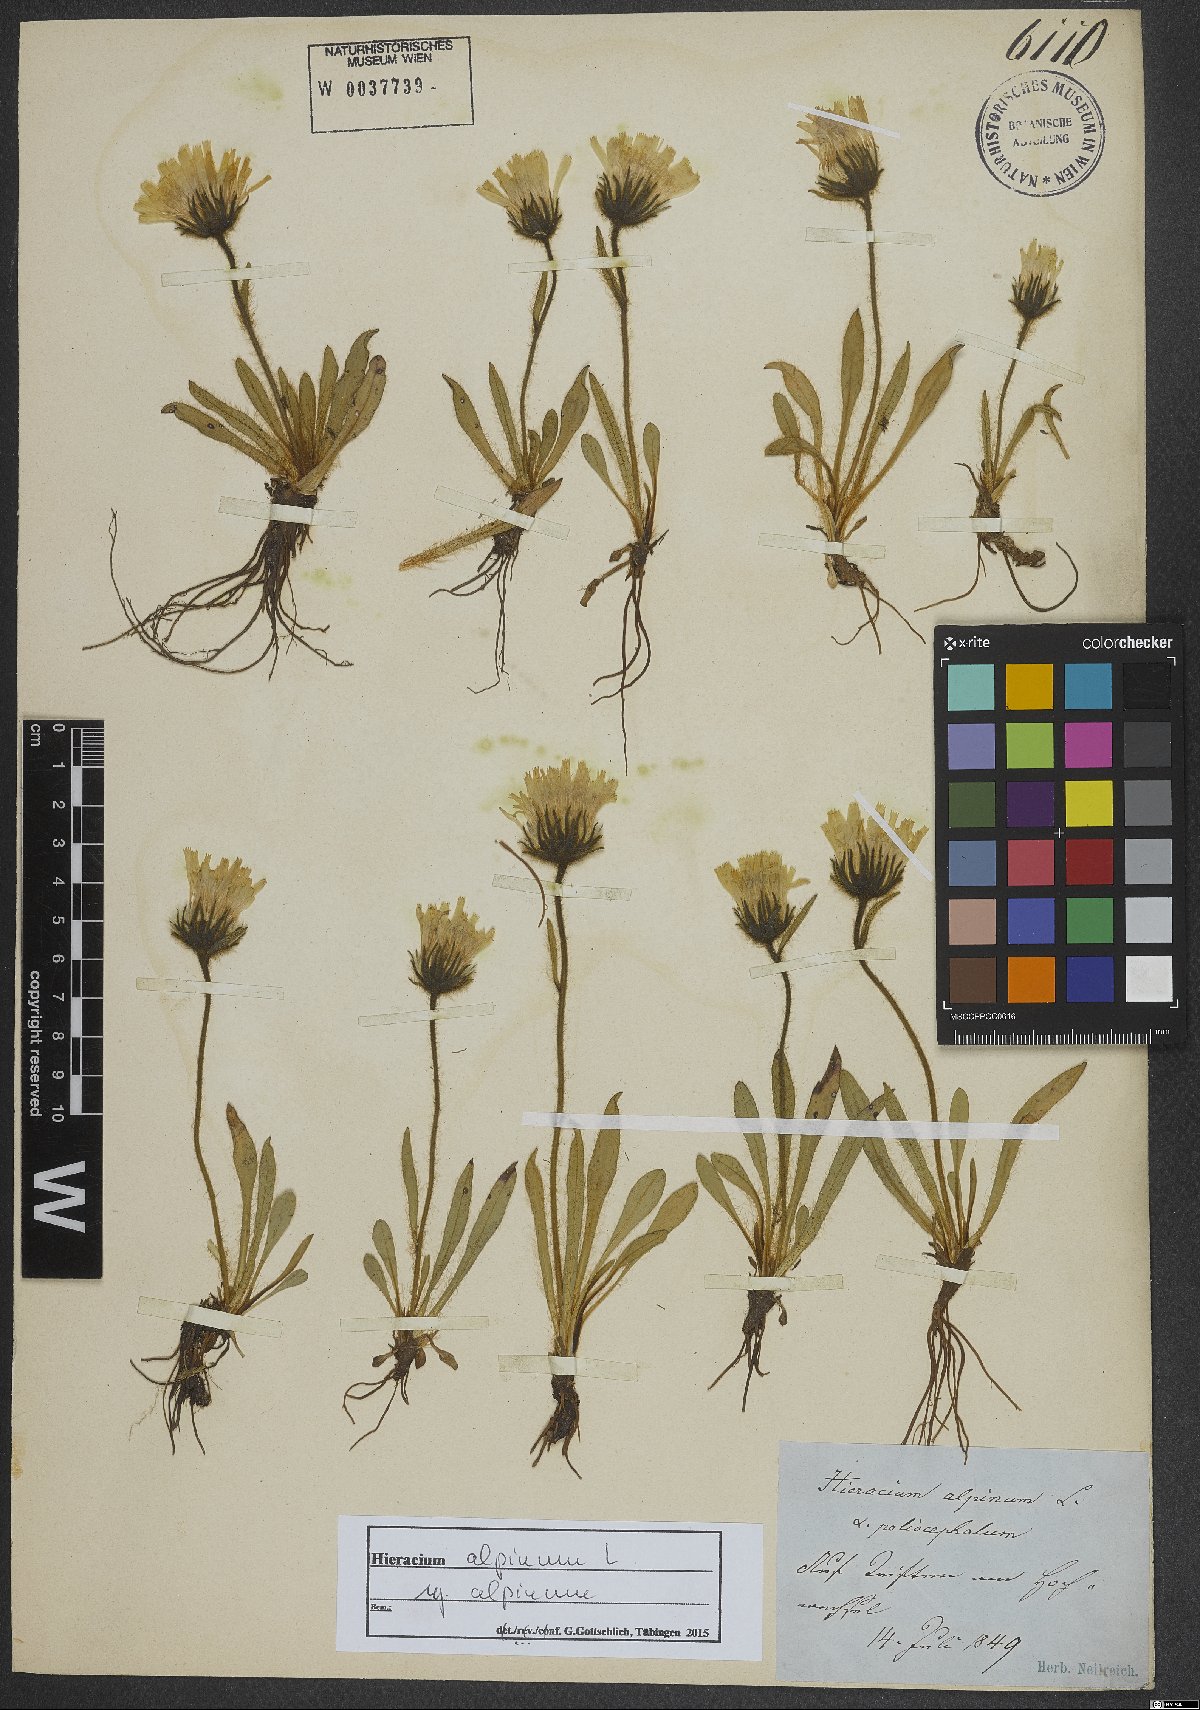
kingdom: Plantae
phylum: Tracheophyta
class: Magnoliopsida
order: Asterales
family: Asteraceae
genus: Hieracium
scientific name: Hieracium alpinum
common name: Alpine hawkweed
